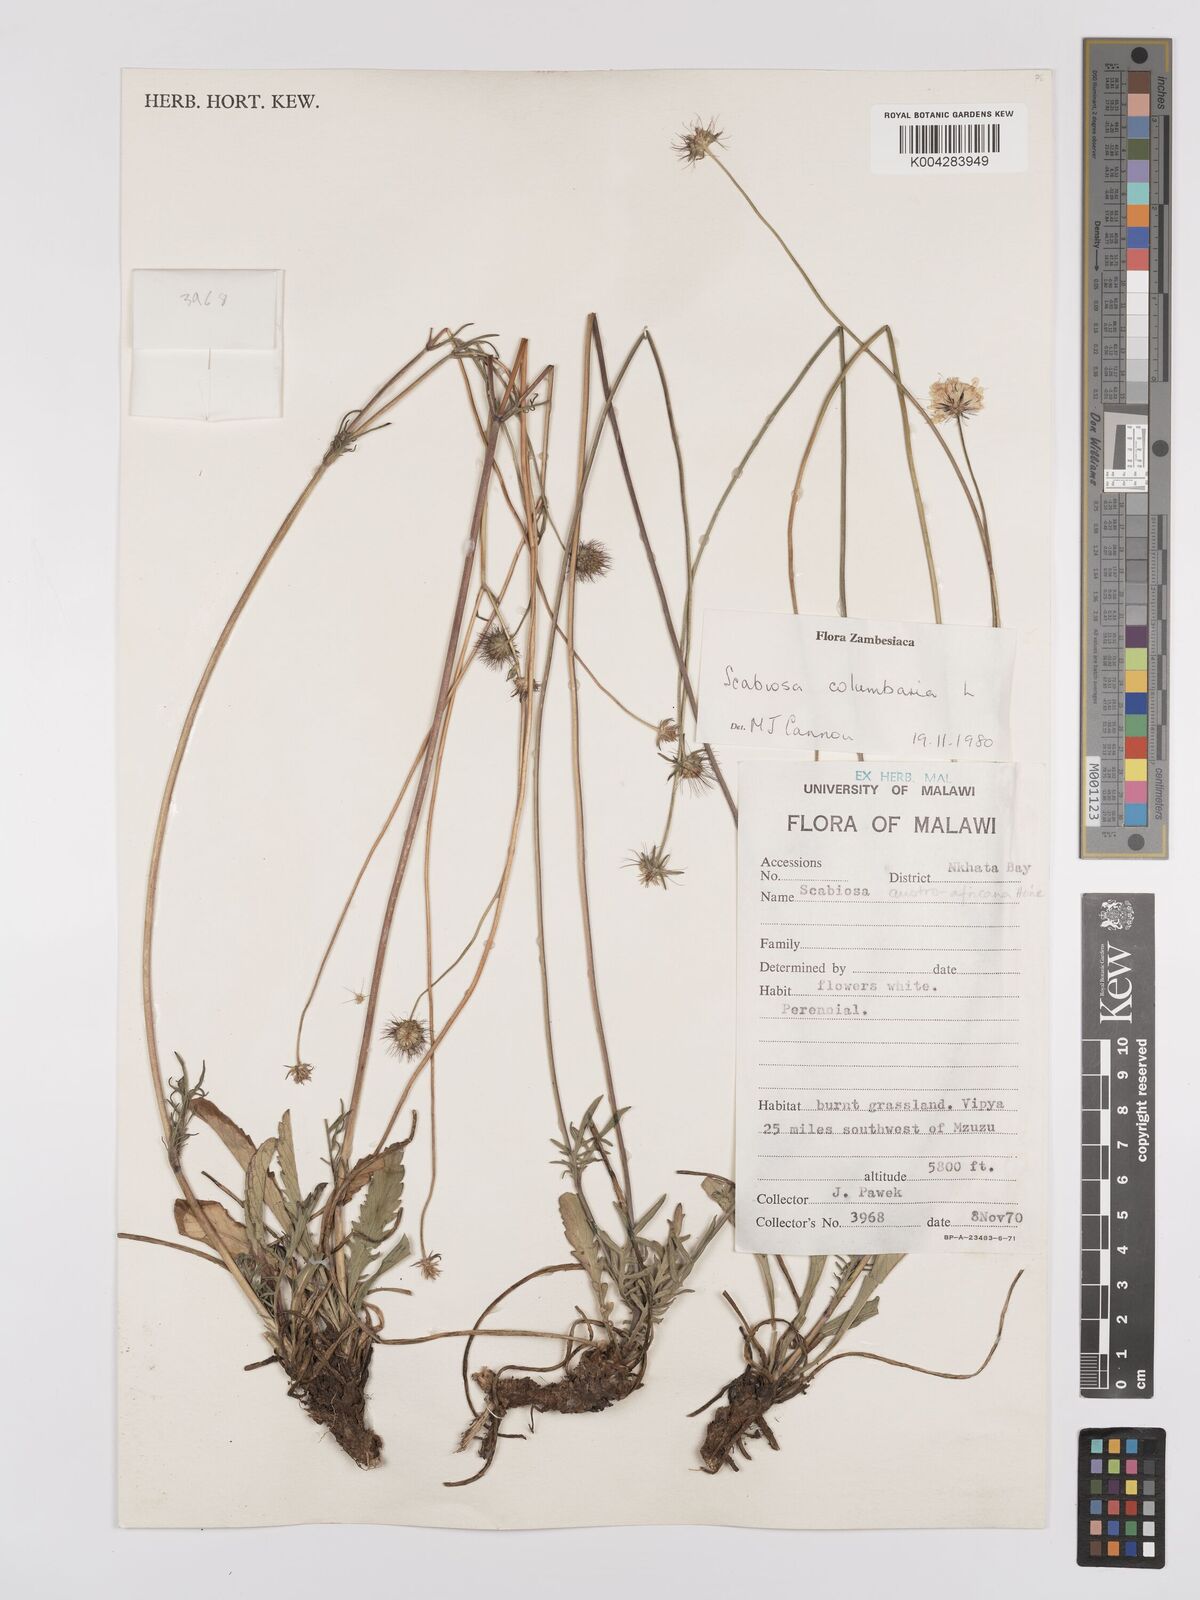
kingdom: Plantae
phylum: Tracheophyta
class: Magnoliopsida
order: Dipsacales
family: Caprifoliaceae
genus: Scabiosa
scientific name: Scabiosa austroafricana
